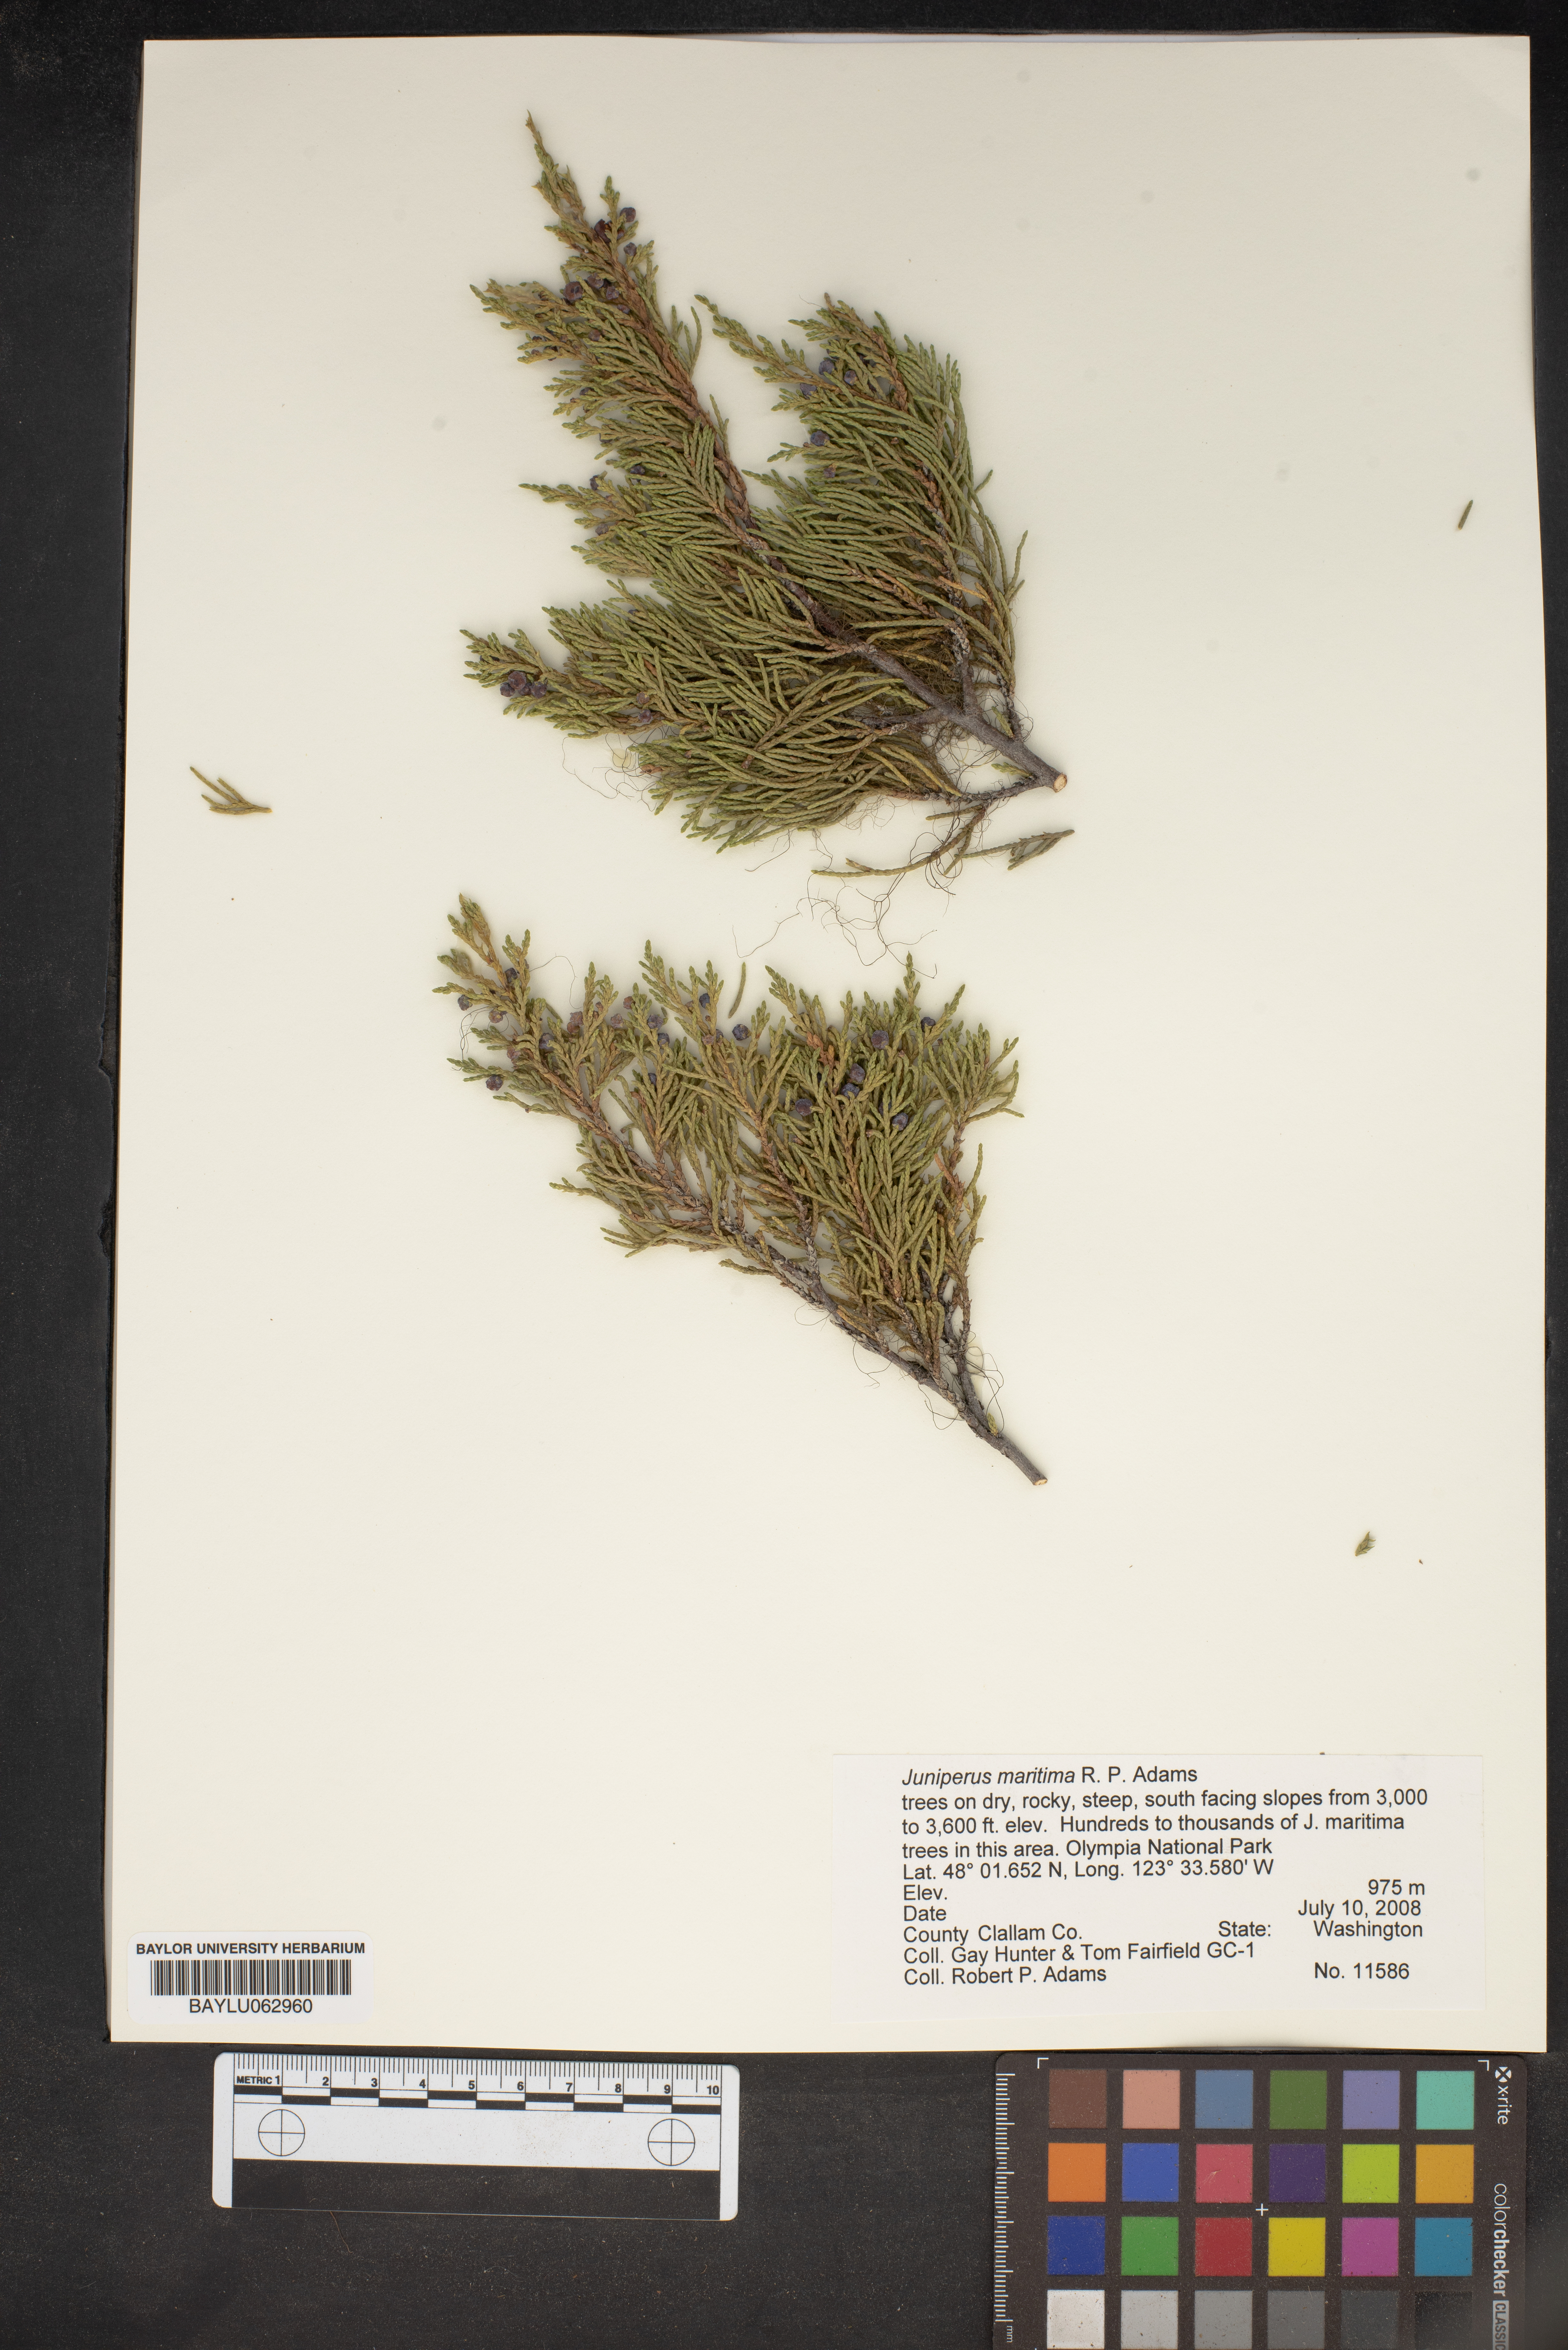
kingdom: Plantae
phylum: Tracheophyta
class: Pinopsida
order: Pinales
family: Cupressaceae
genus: Juniperus
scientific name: Juniperus scopulorum
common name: Rocky mountain juniper
